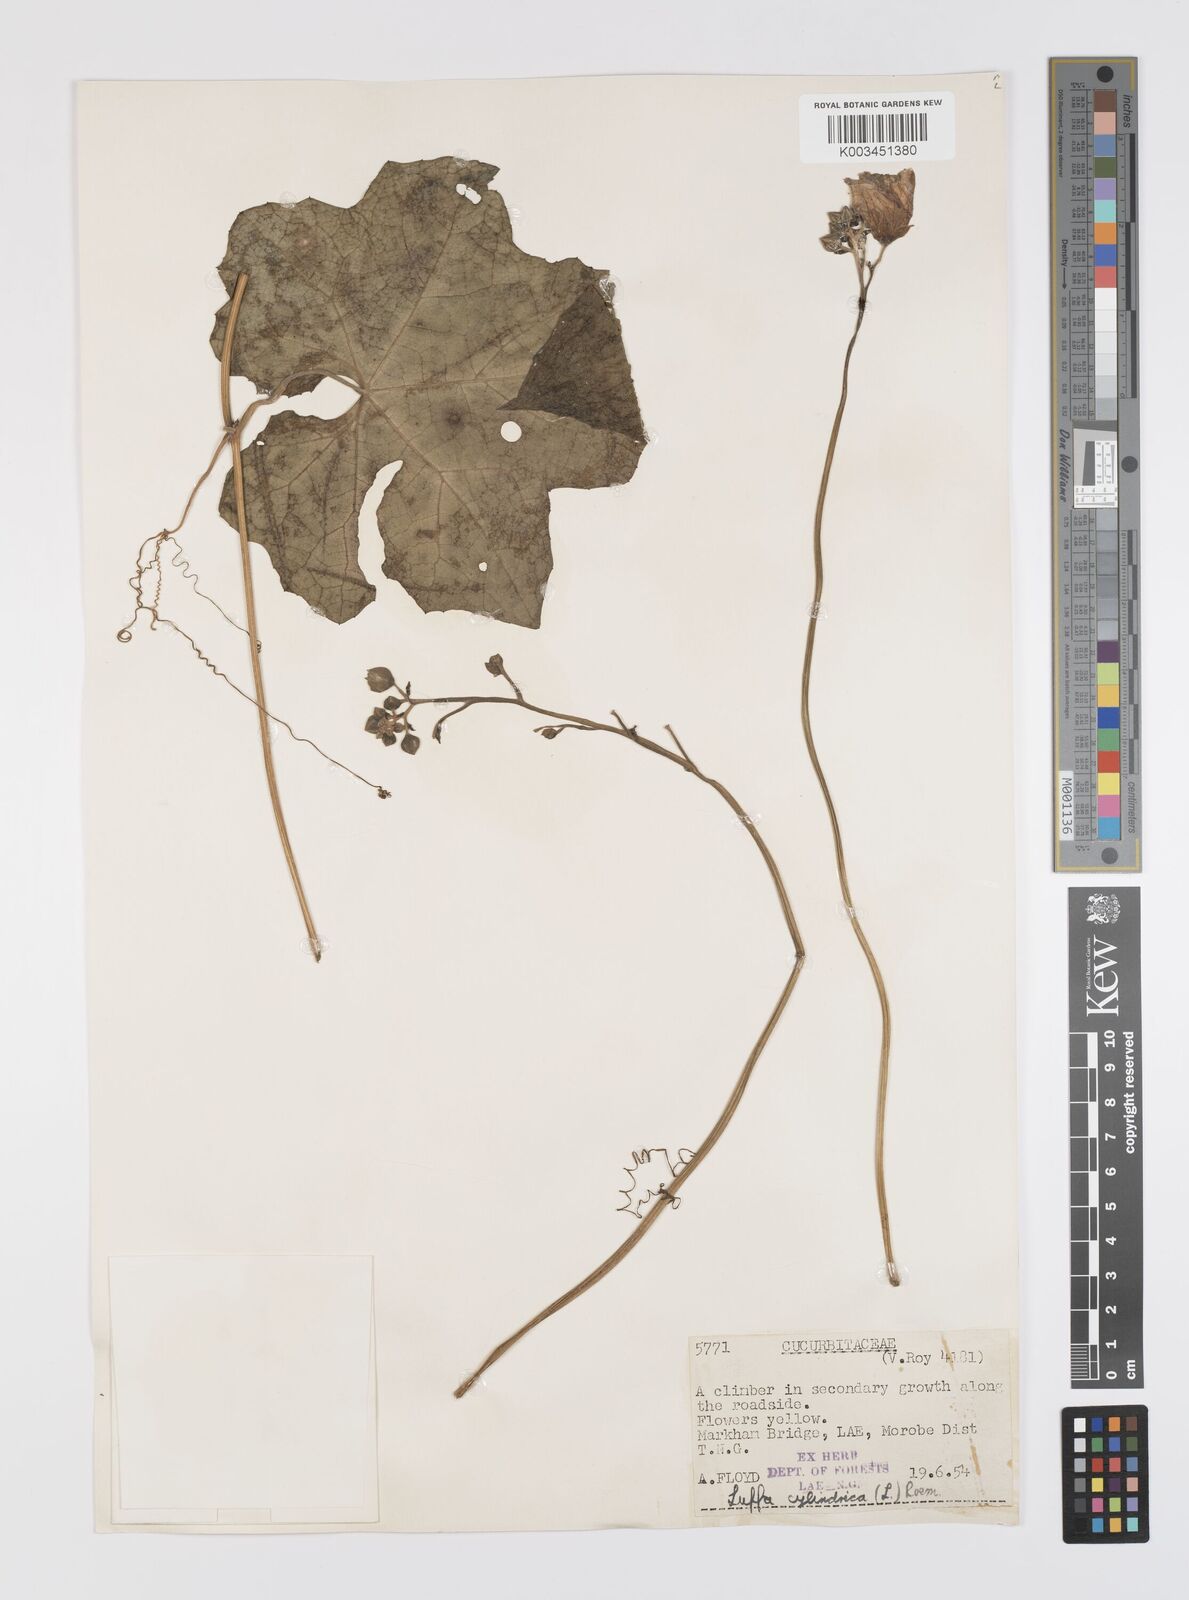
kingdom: Plantae
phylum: Tracheophyta
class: Magnoliopsida
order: Cucurbitales
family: Cucurbitaceae
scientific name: Cucurbitaceae
